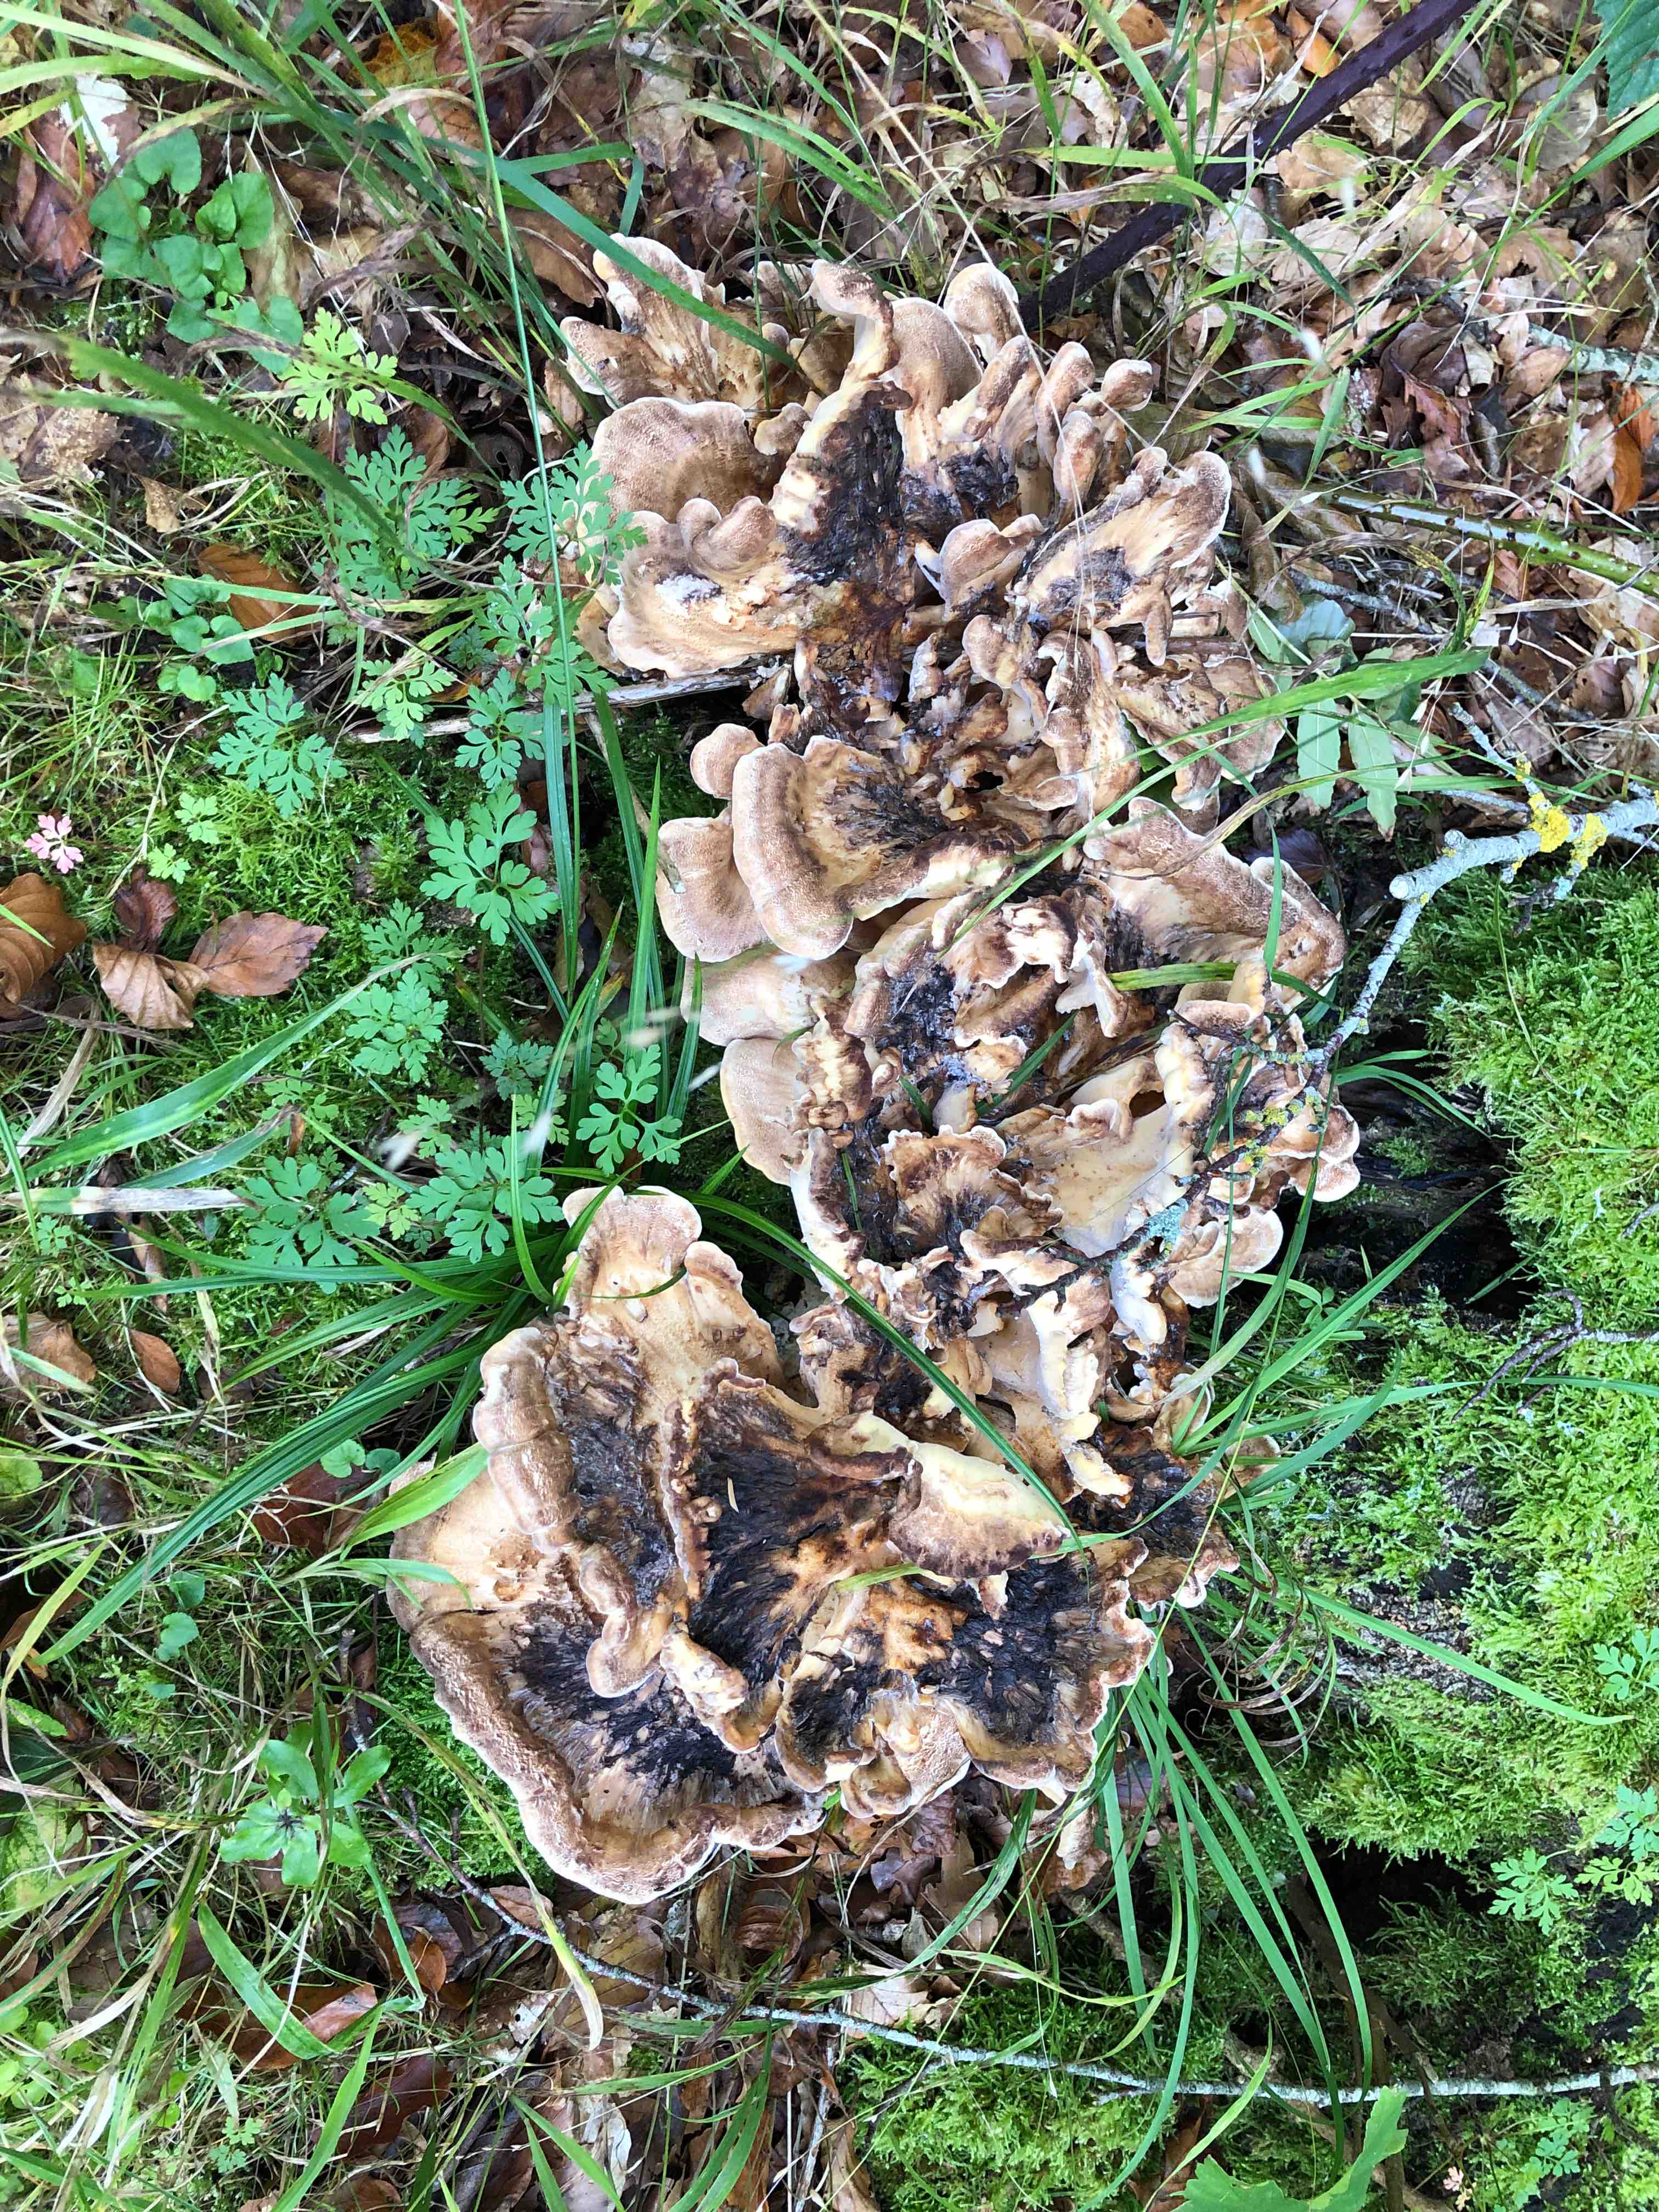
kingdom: Fungi
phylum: Basidiomycota
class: Agaricomycetes
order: Polyporales
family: Meripilaceae
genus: Meripilus
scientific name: Meripilus giganteus
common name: kæmpeporesvamp
